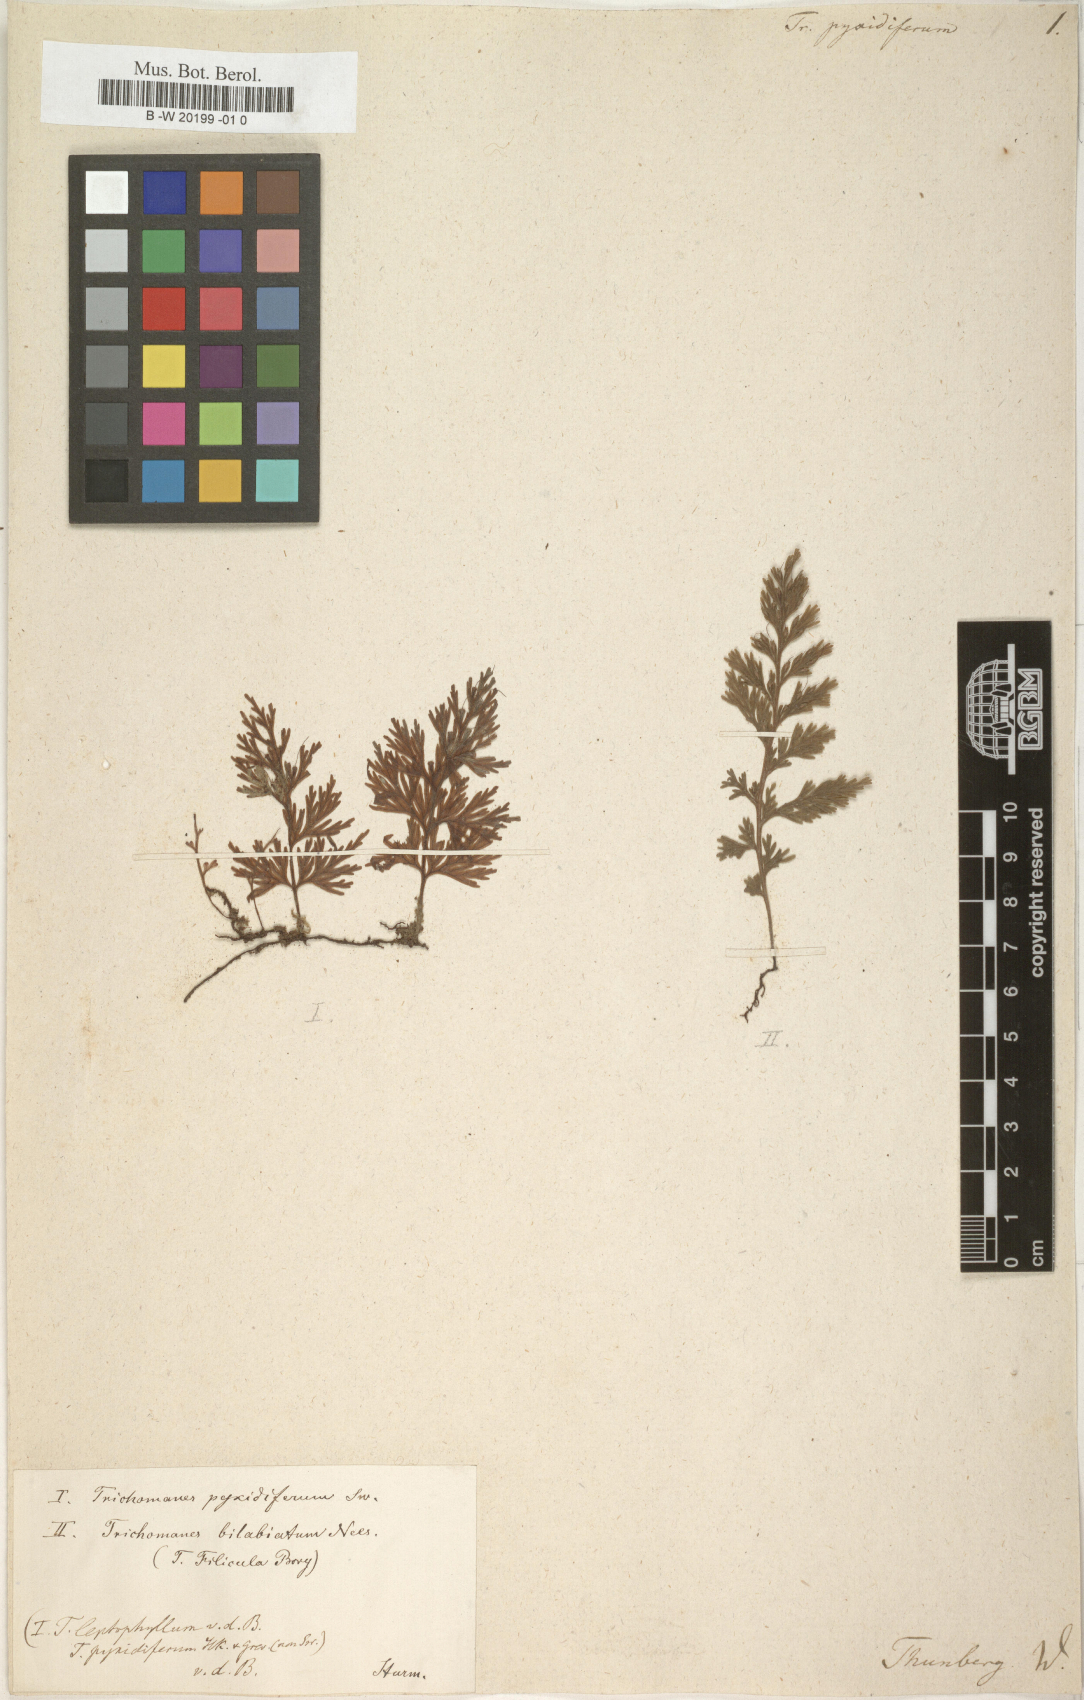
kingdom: Plantae
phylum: Tracheophyta
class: Polypodiopsida
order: Hymenophyllales
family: Hymenophyllaceae
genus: Polyphlebium
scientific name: Polyphlebium pyxidiferum
